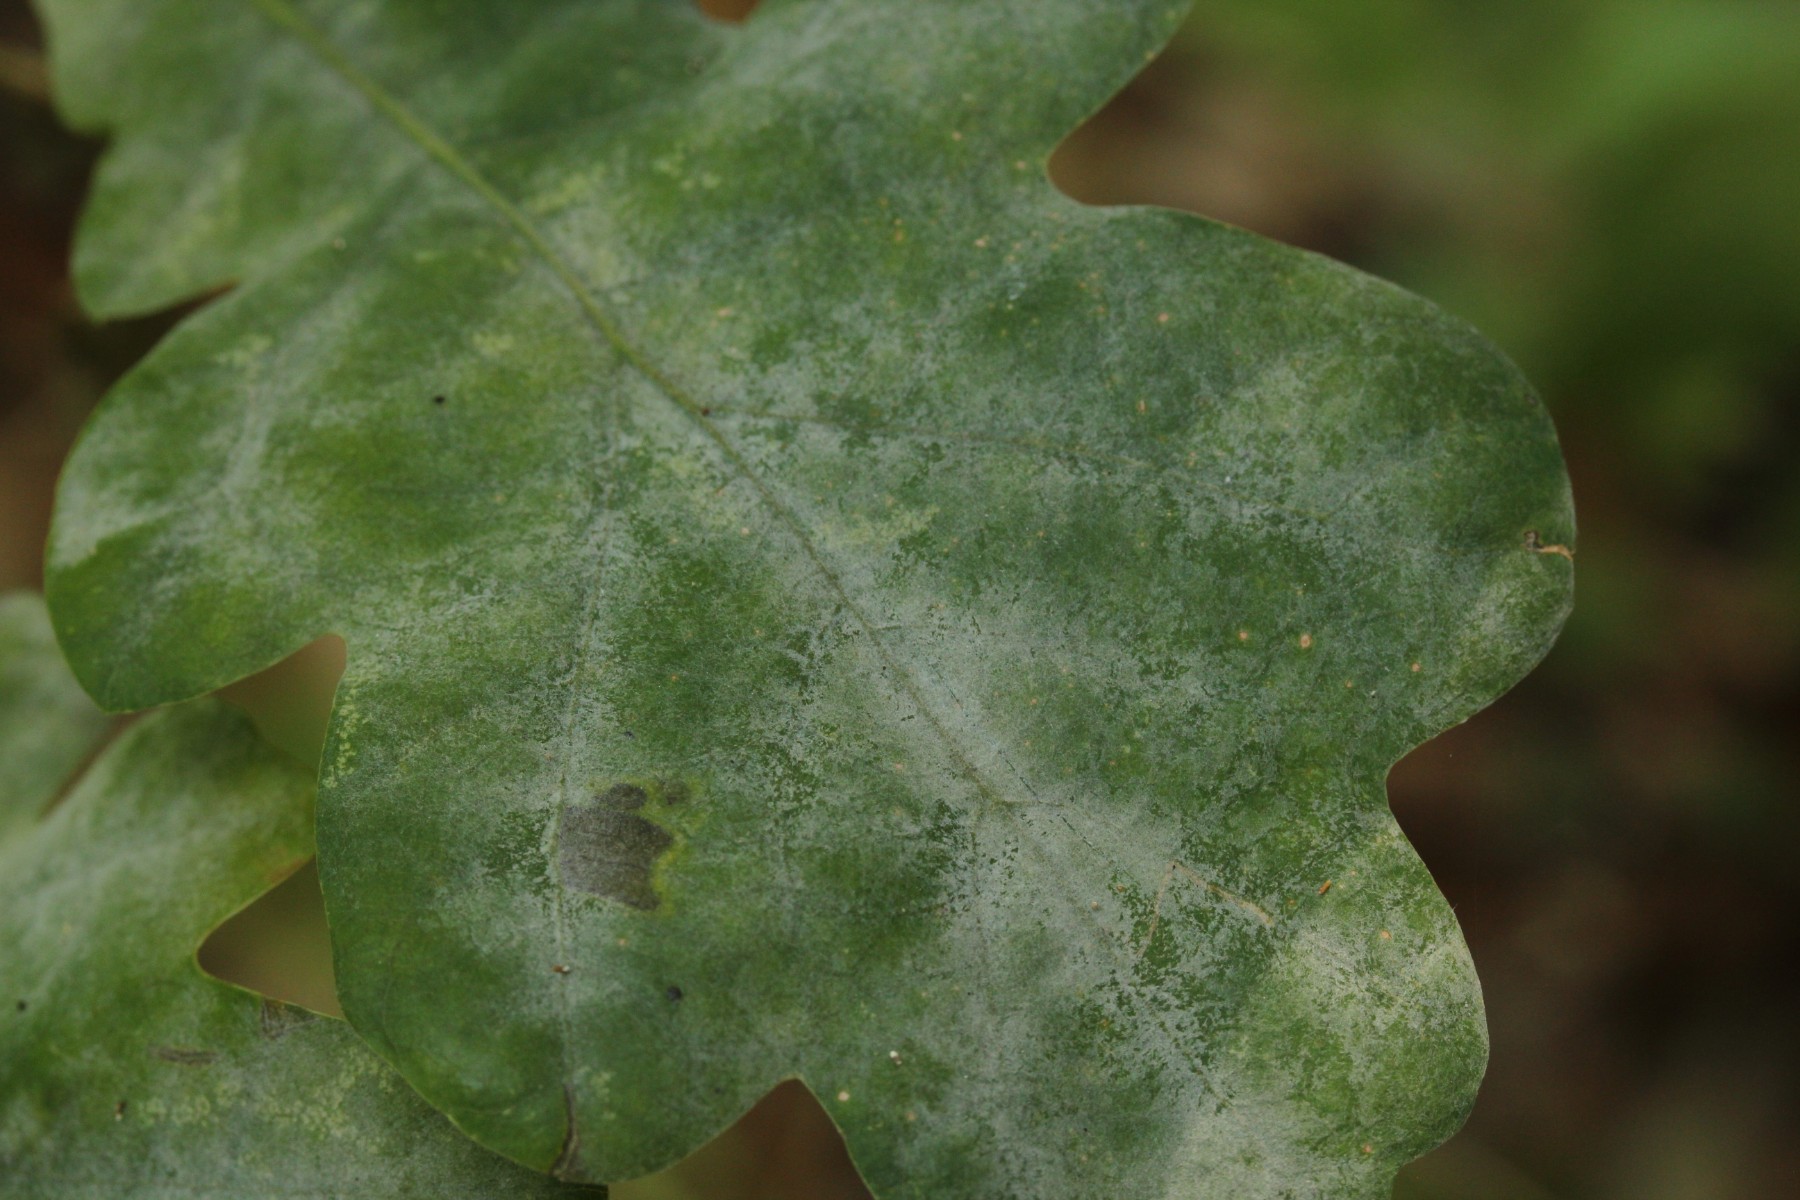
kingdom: Fungi
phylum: Ascomycota
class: Leotiomycetes
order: Helotiales
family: Erysiphaceae
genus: Erysiphe
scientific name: Erysiphe alphitoides
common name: ege-meldug
